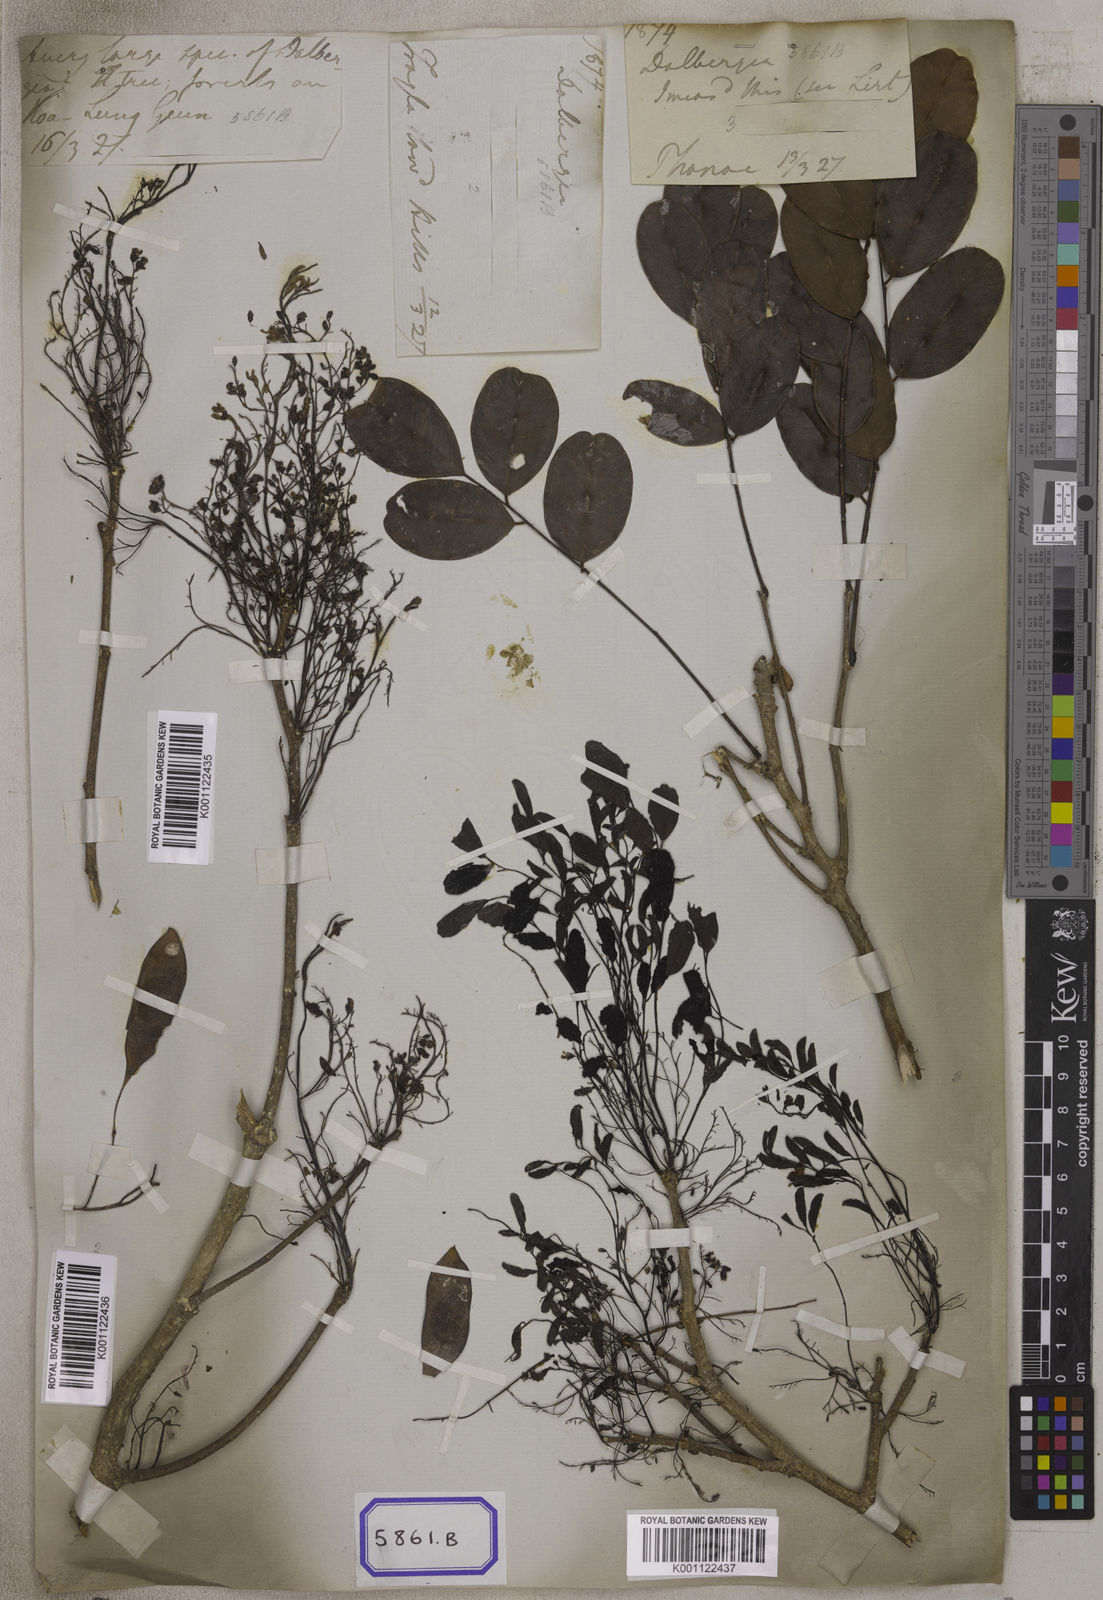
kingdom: Plantae
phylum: Tracheophyta
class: Magnoliopsida
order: Fabales
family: Fabaceae
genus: Dalbergia
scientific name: Dalbergia
